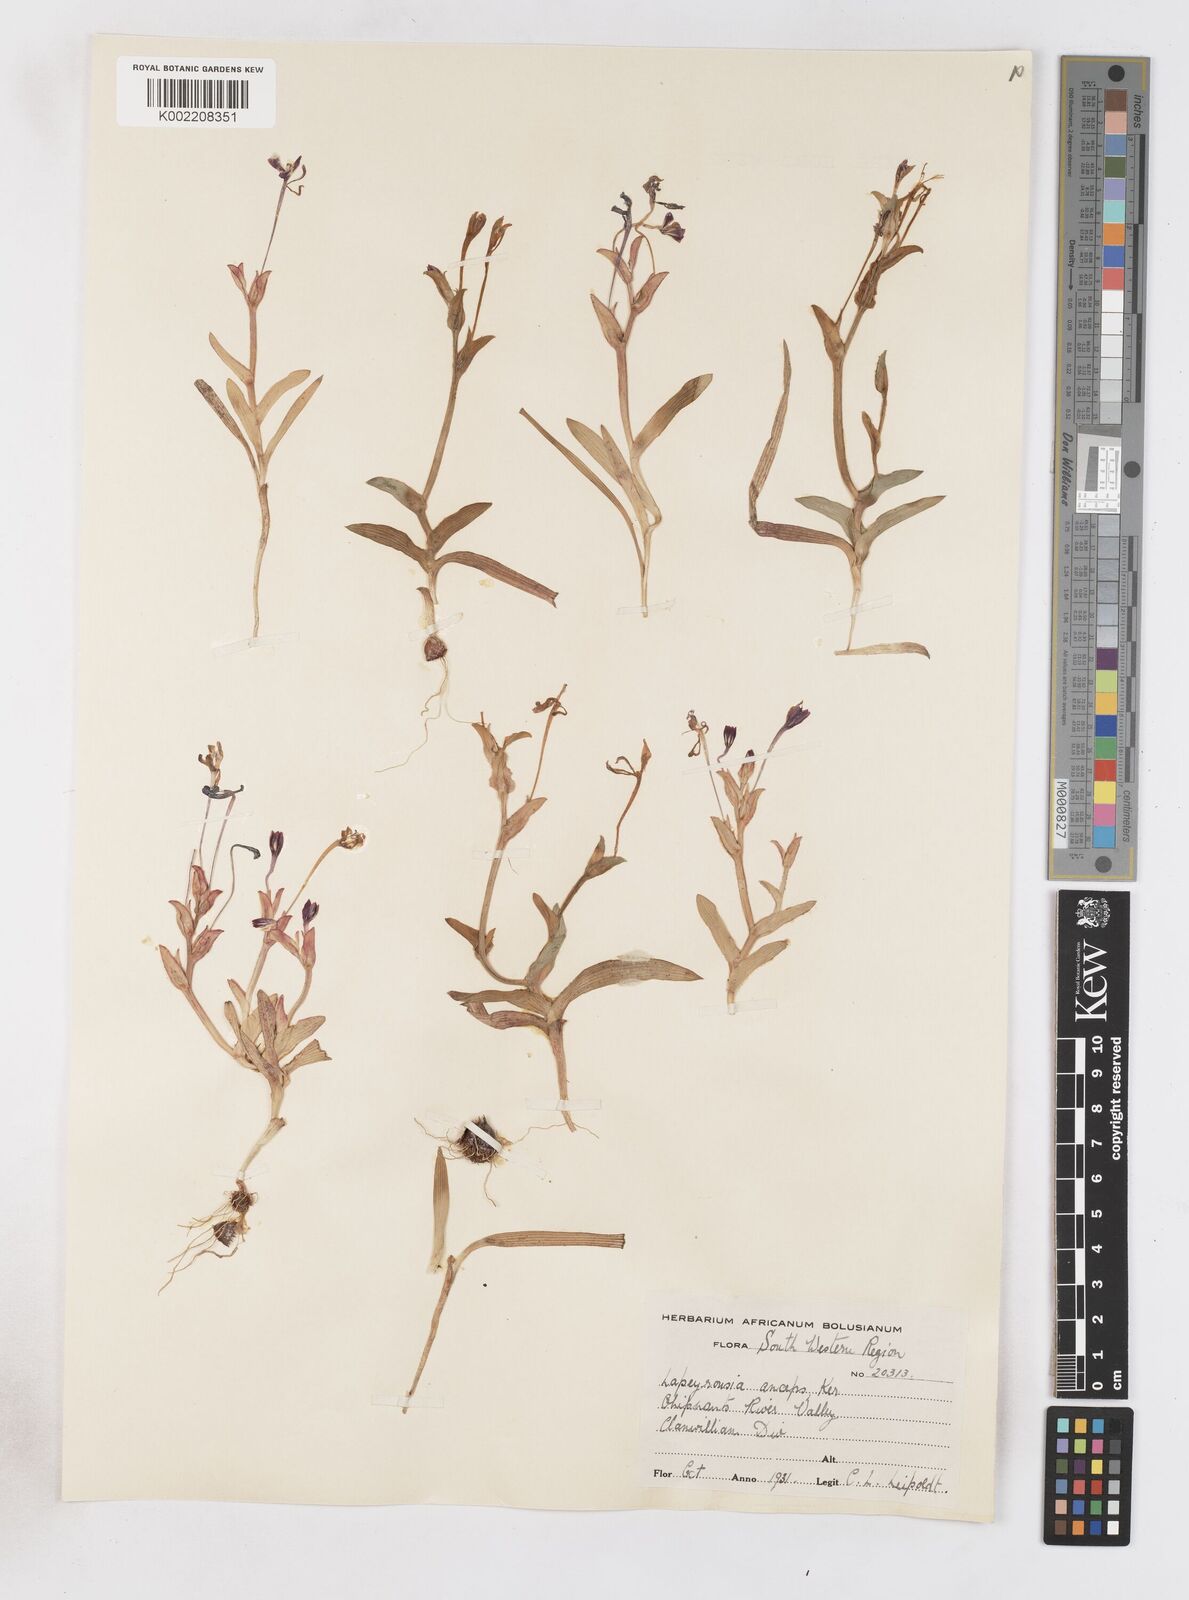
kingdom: Plantae
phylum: Tracheophyta
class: Liliopsida
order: Asparagales
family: Iridaceae
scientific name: Iridaceae
